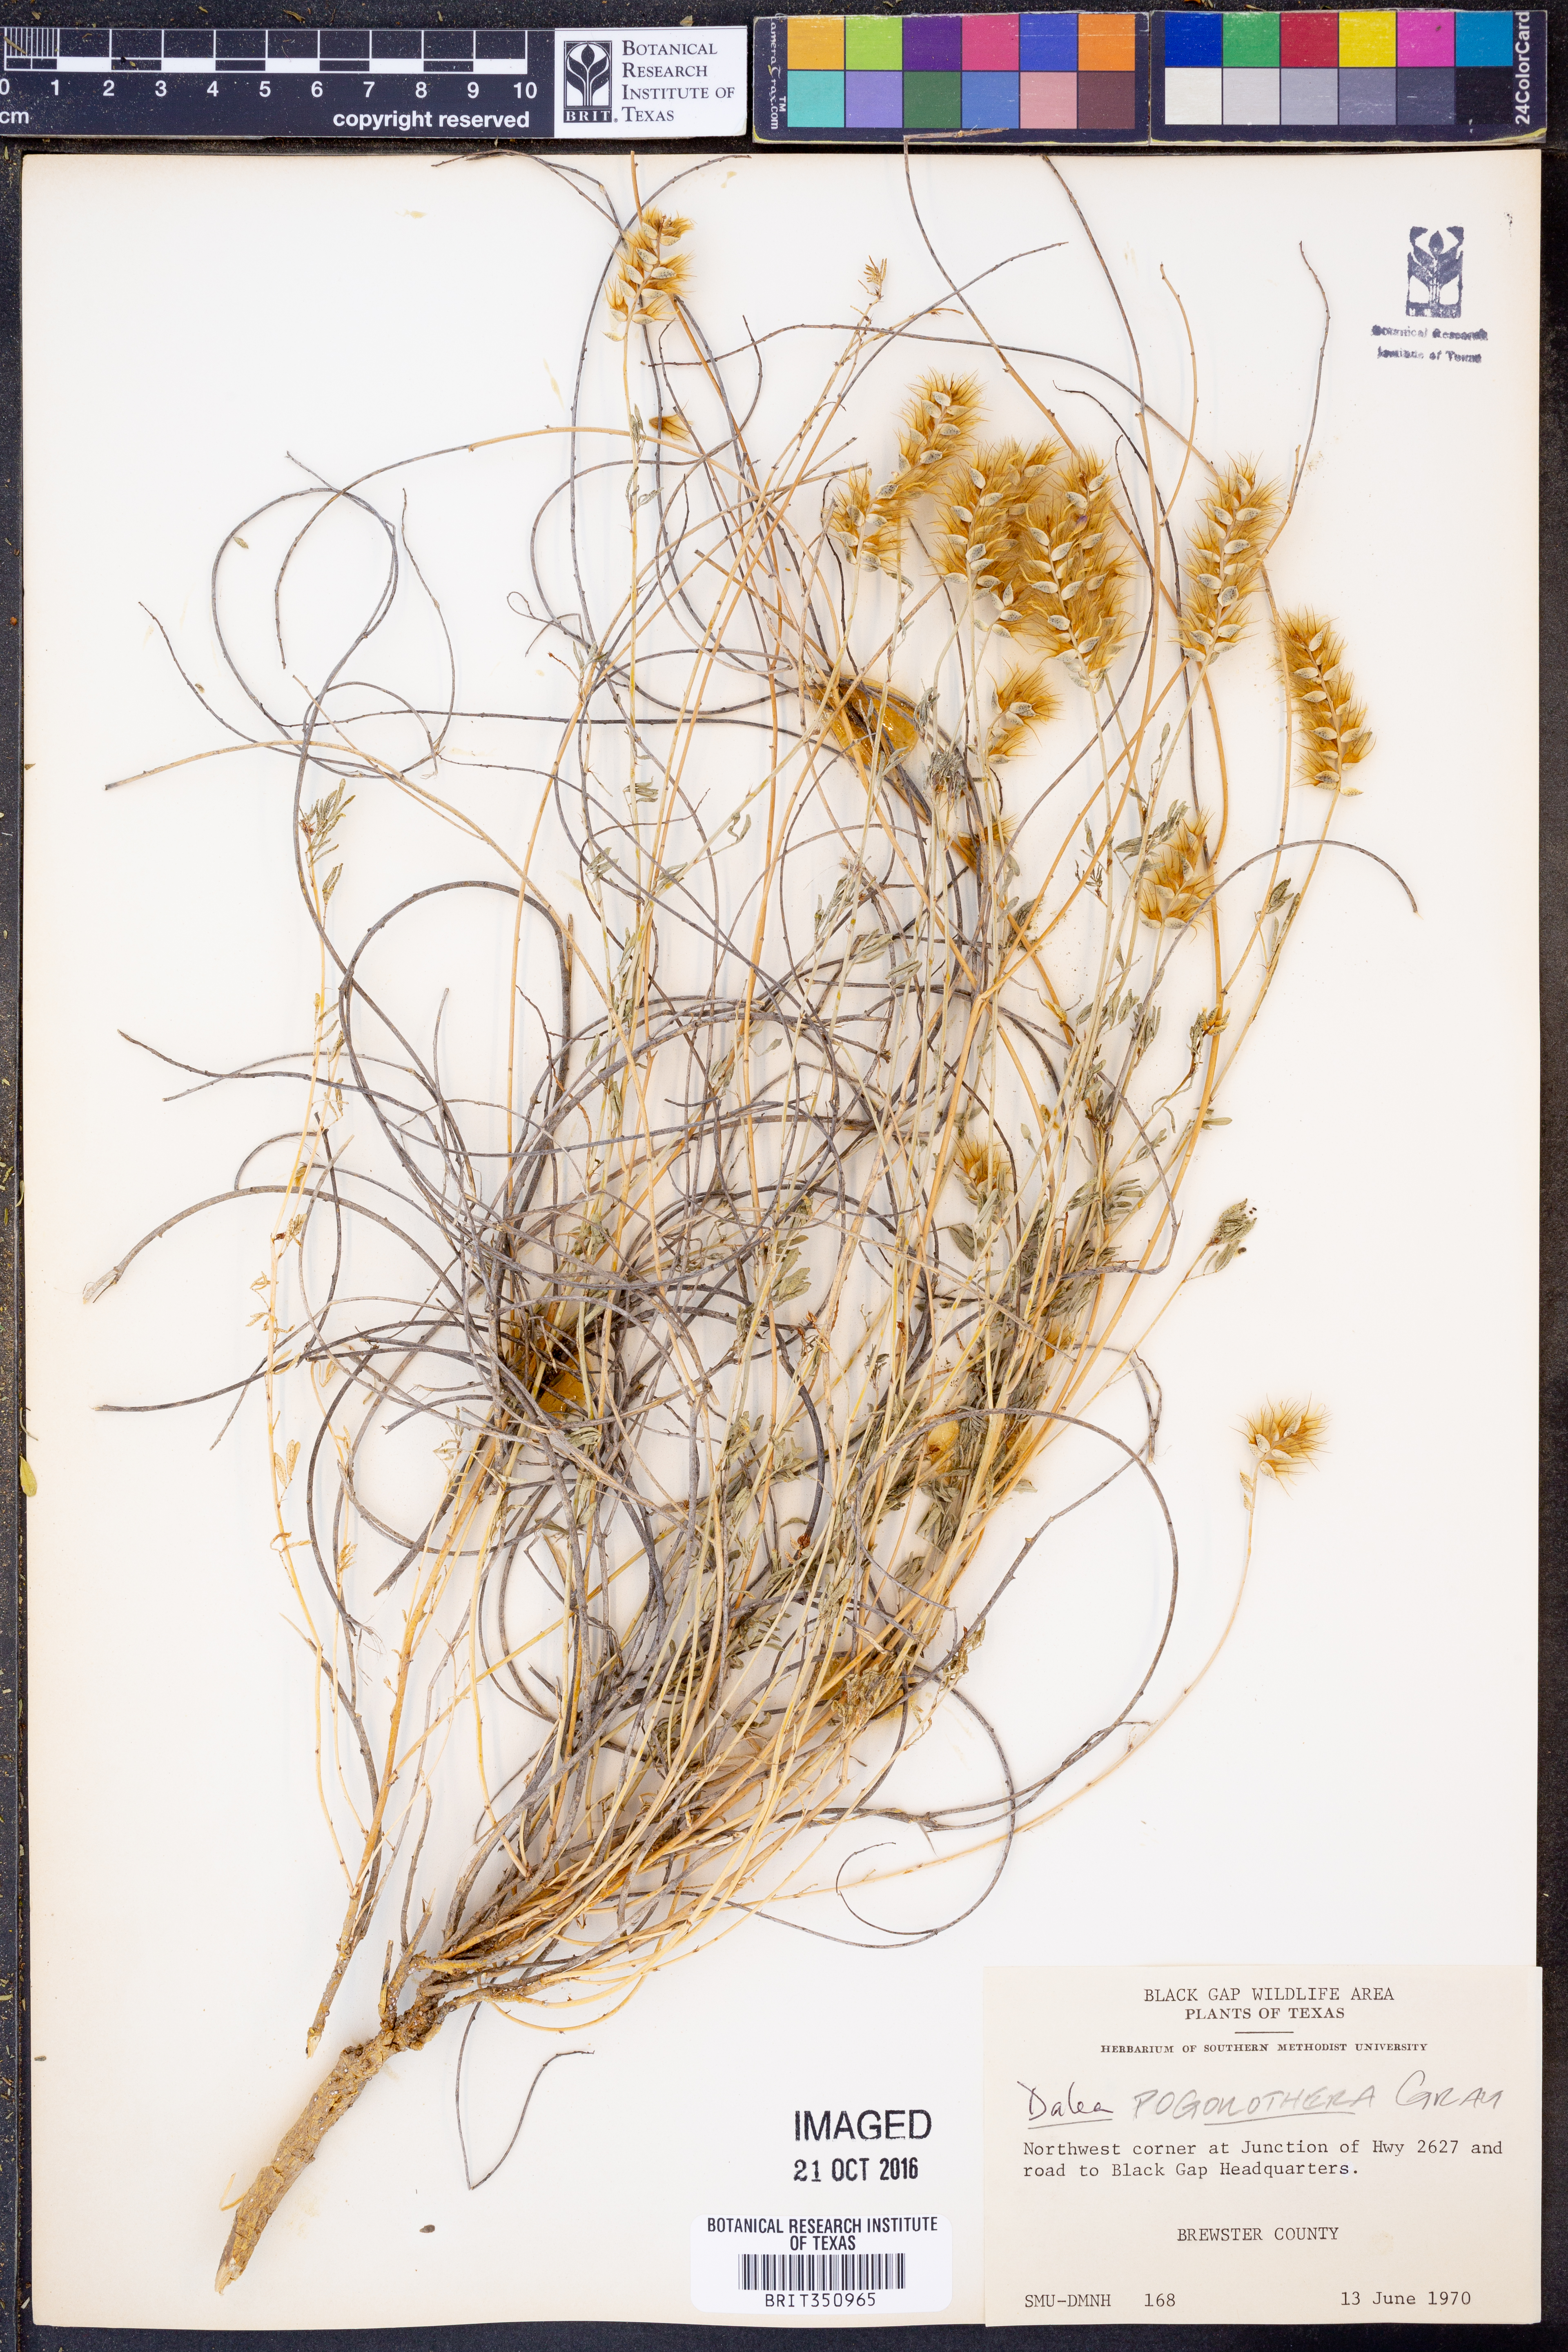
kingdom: Plantae
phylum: Tracheophyta
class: Magnoliopsida
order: Fabales
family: Fabaceae
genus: Dalea
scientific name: Dalea pogonathera
